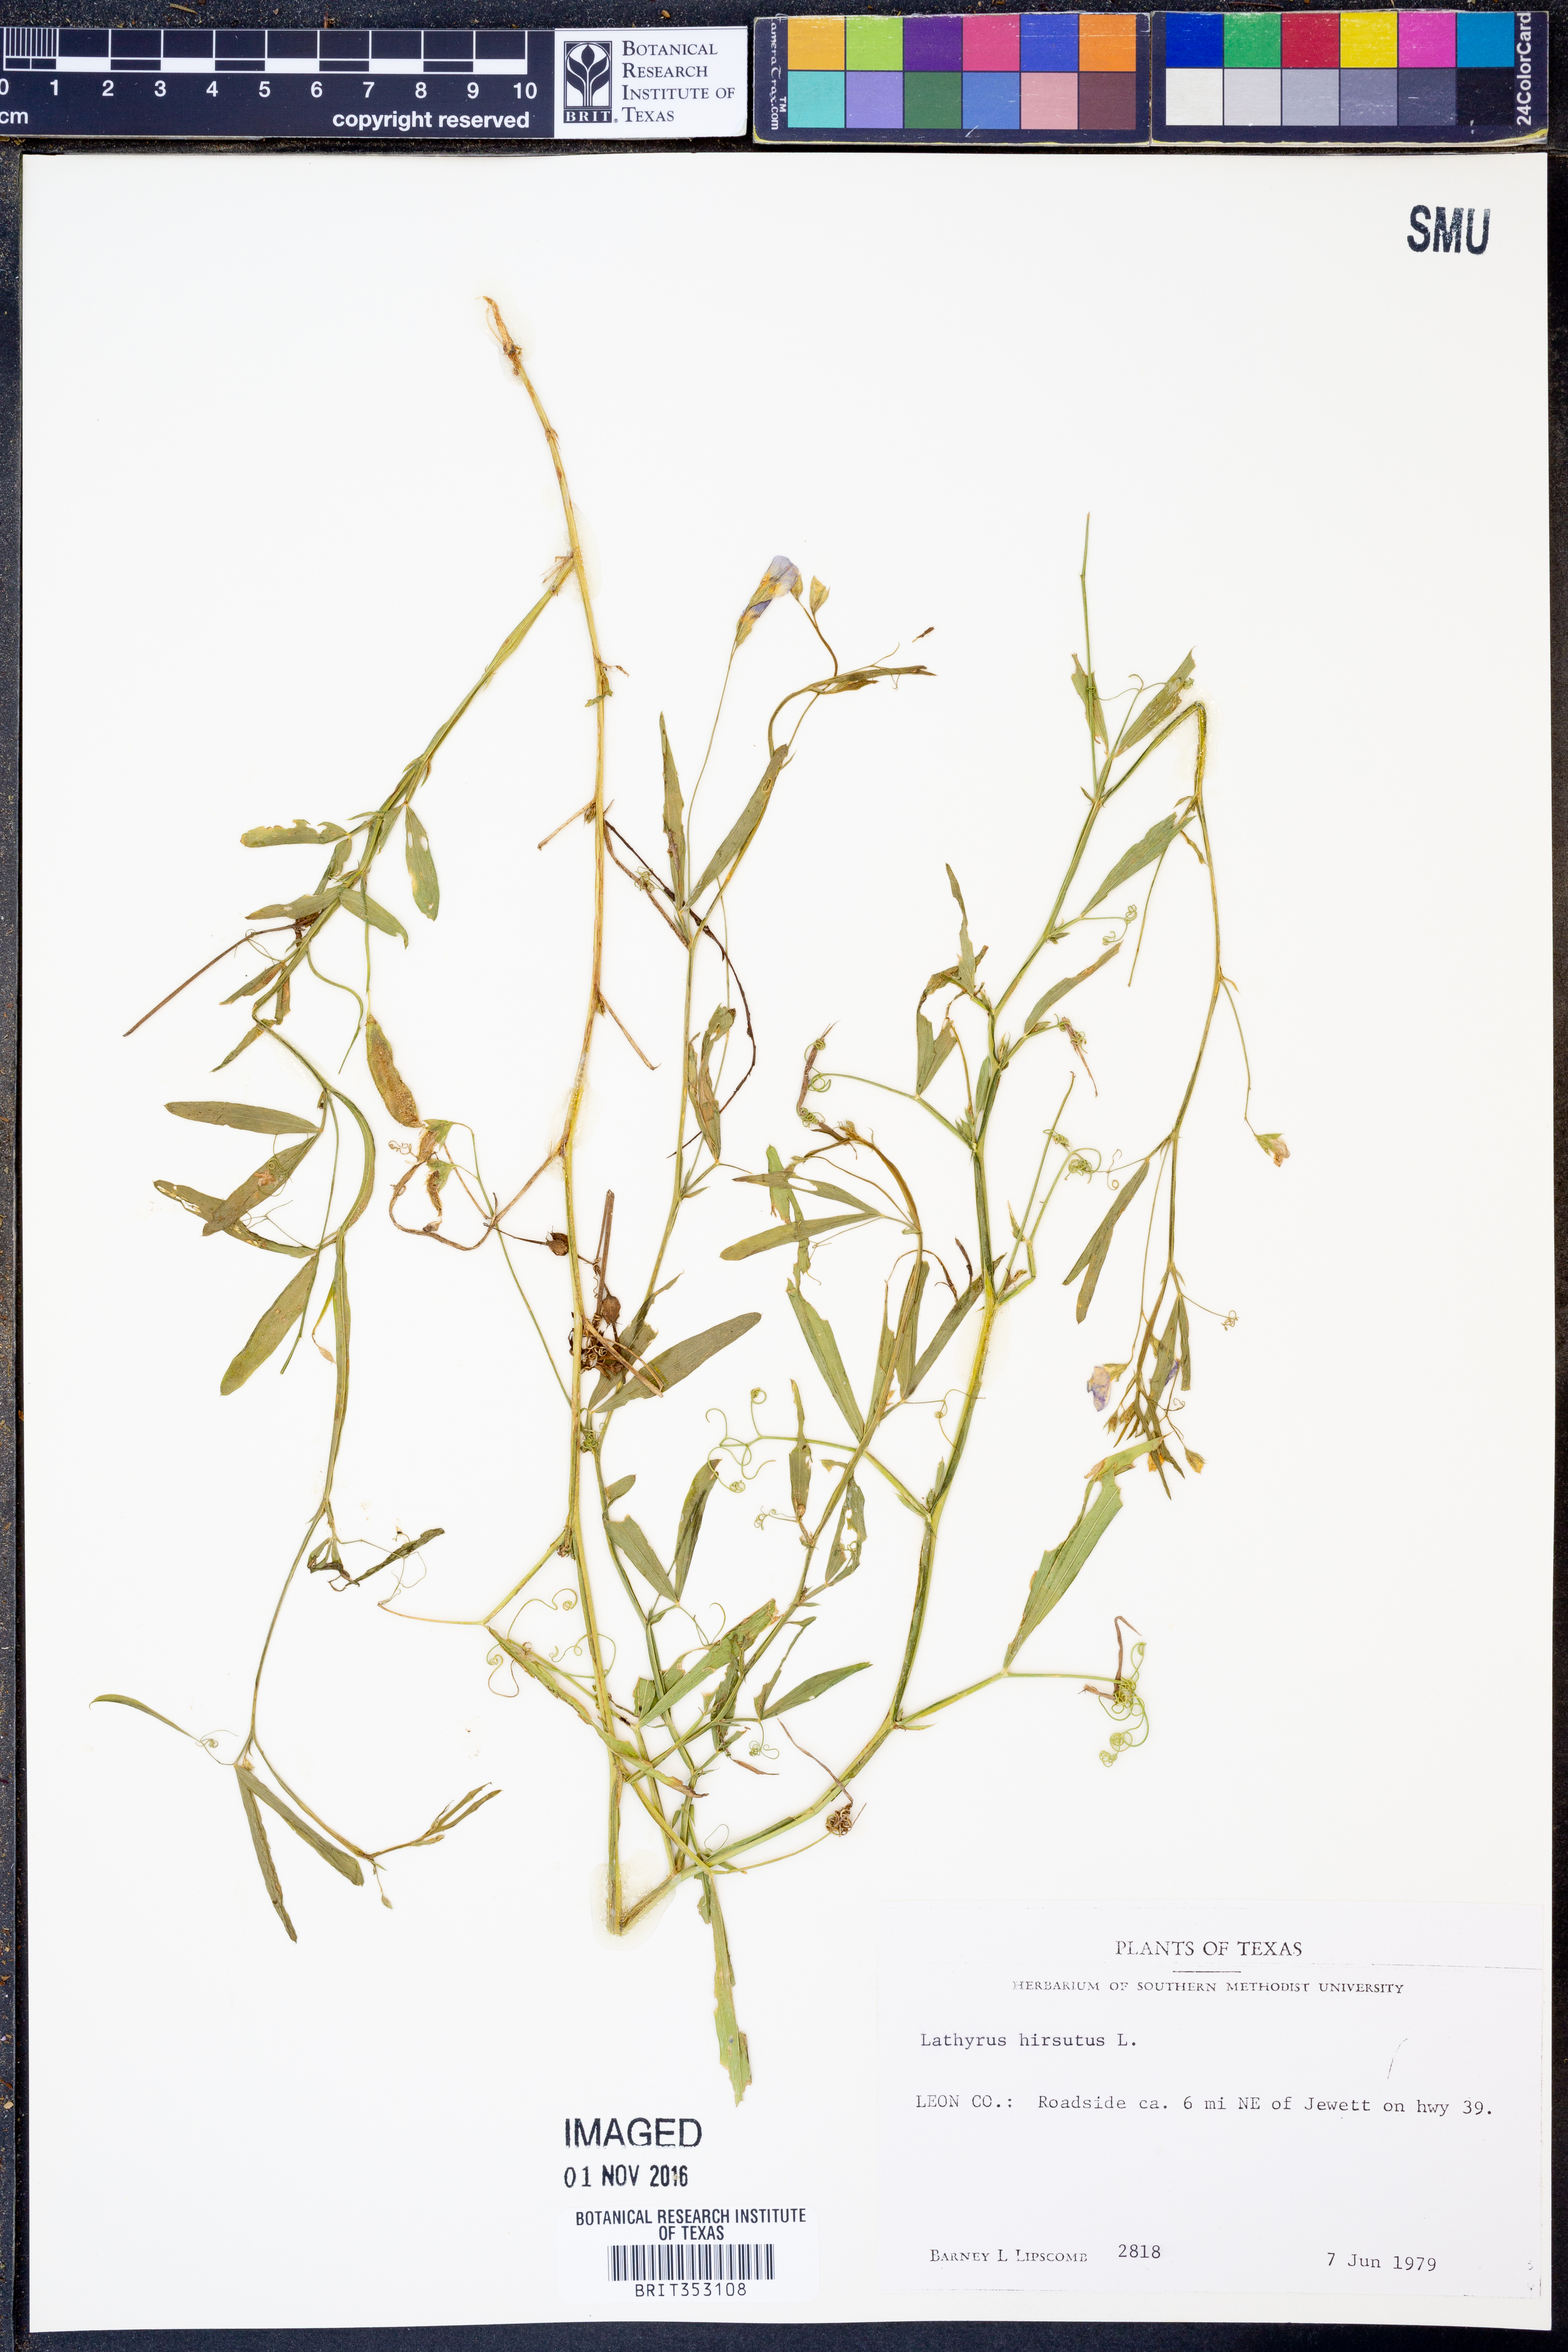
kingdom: Plantae
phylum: Tracheophyta
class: Magnoliopsida
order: Fabales
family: Fabaceae
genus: Lathyrus
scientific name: Lathyrus hirsutus
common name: Hairy vetchling
